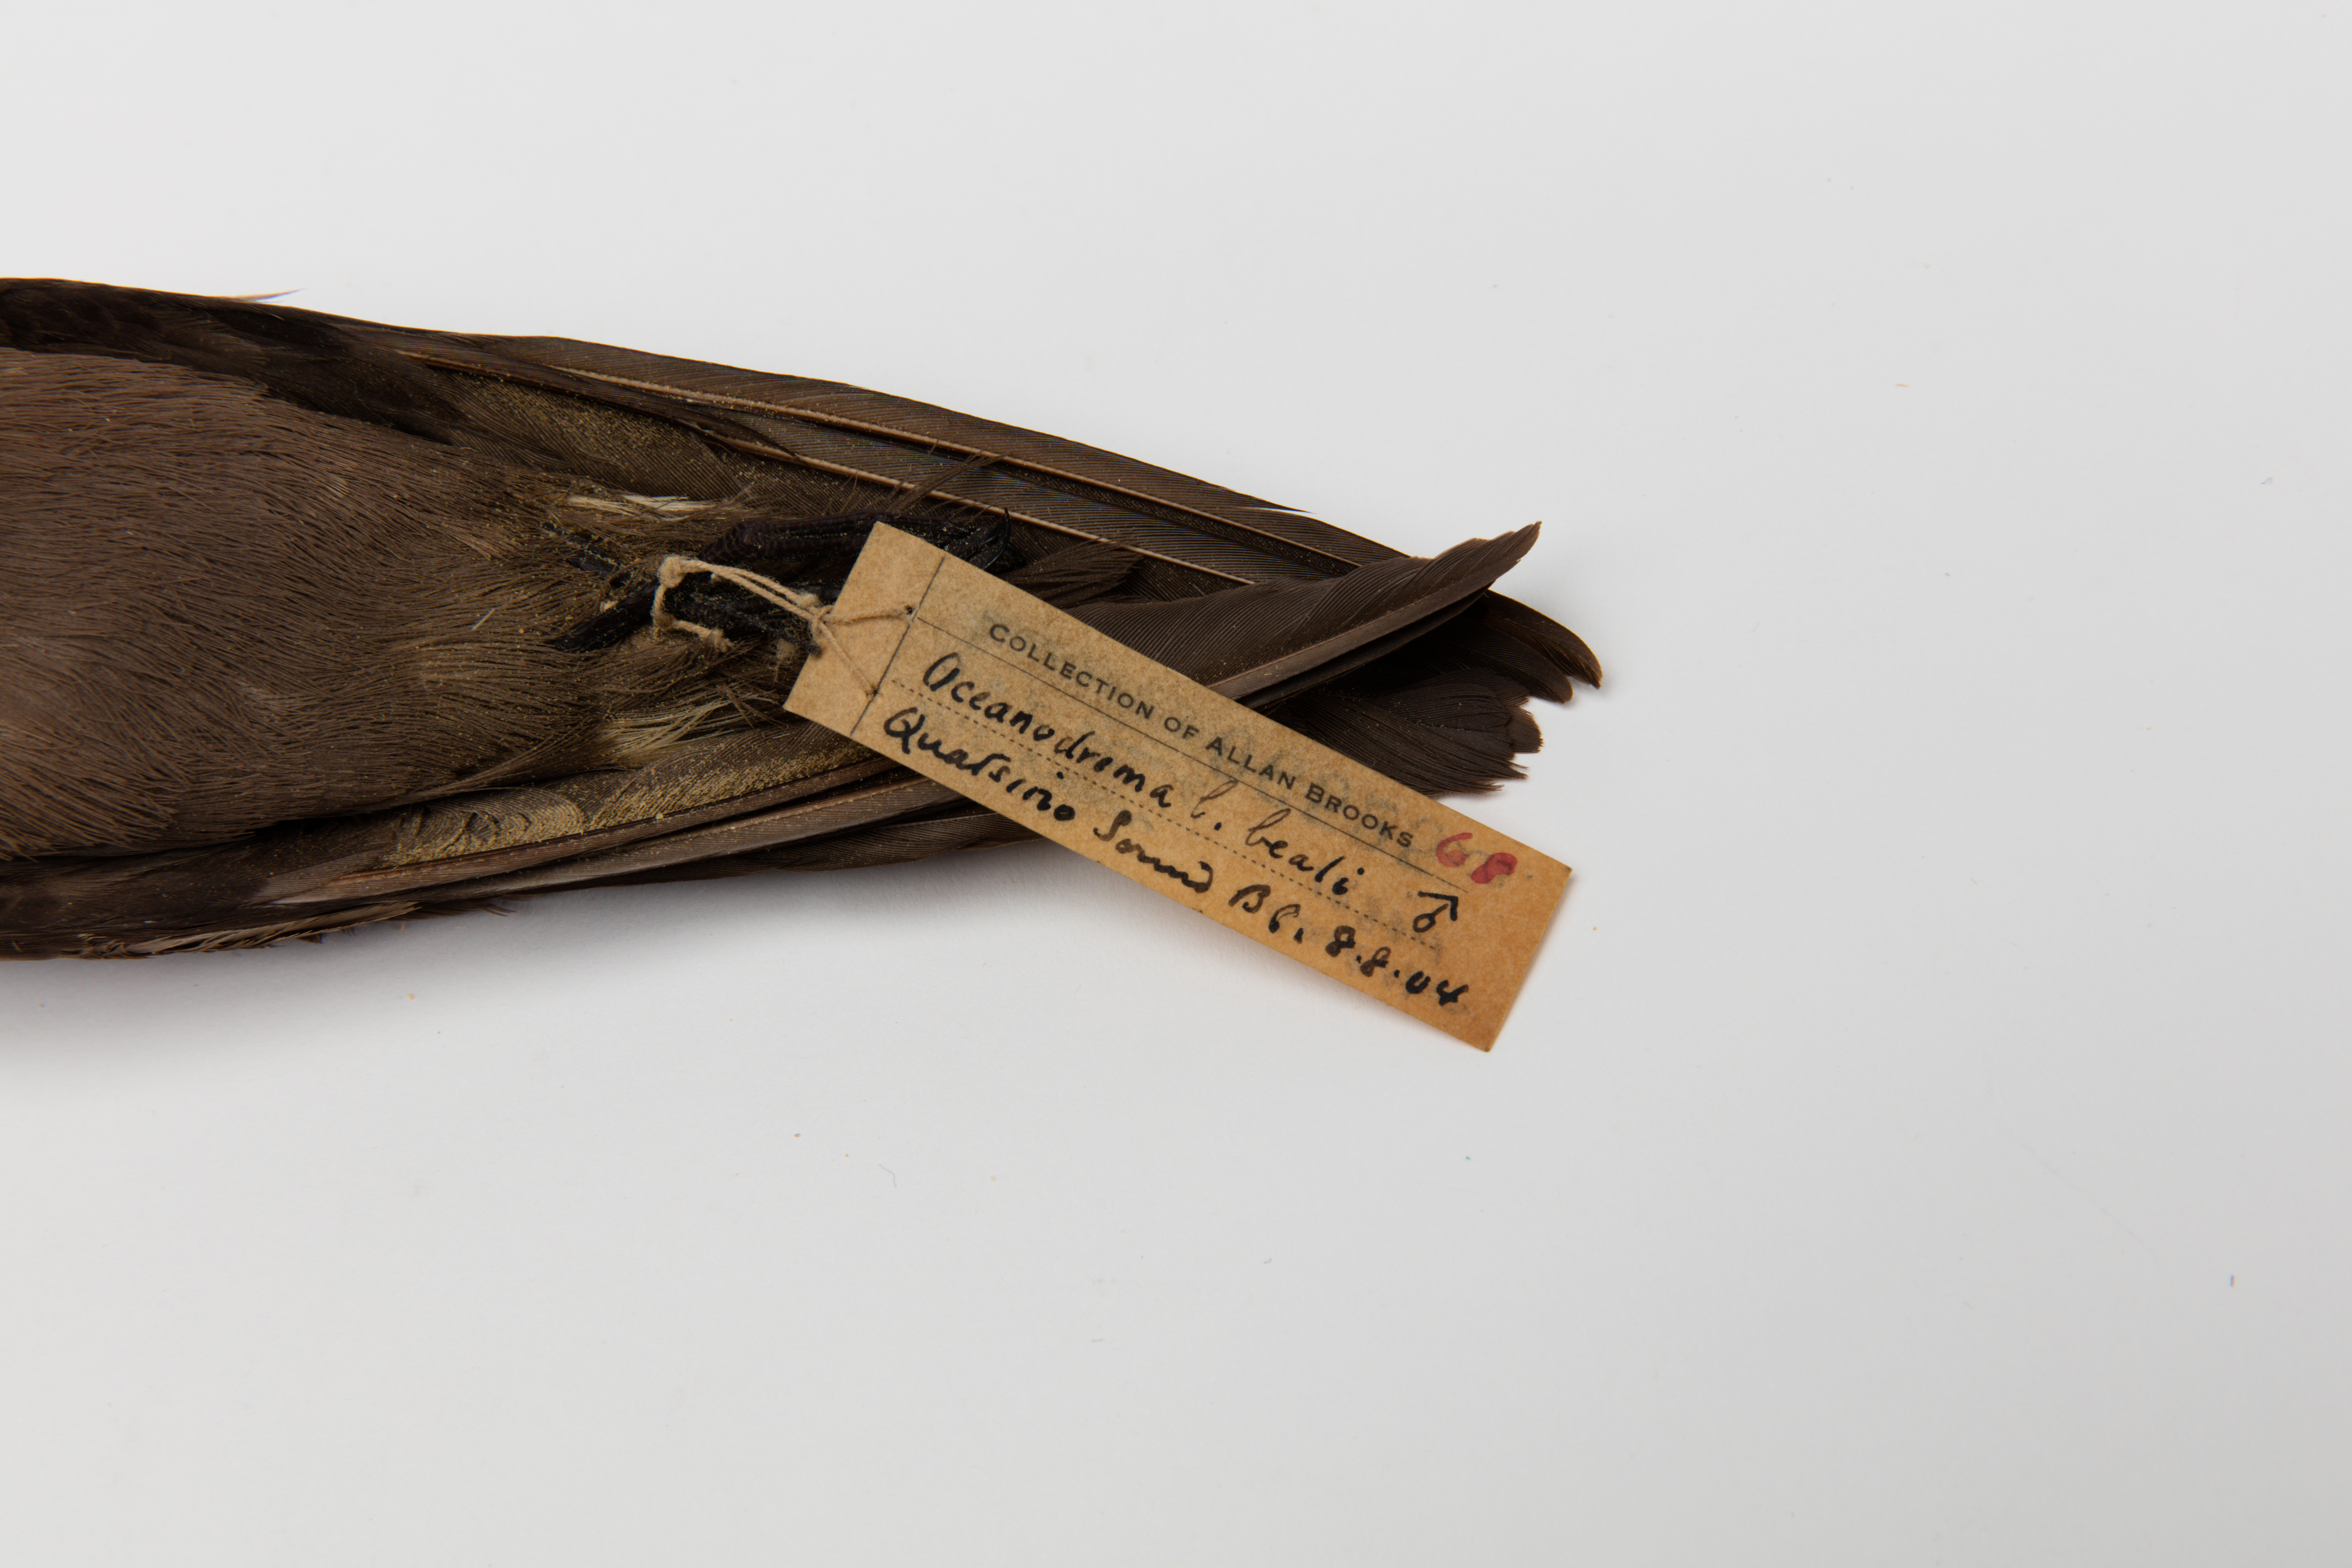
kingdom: Animalia
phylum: Chordata
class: Aves
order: Procellariiformes
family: Hydrobatidae
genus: Oceanodroma
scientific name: Oceanodroma leucorhoa
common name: Leach's storm-petrel
